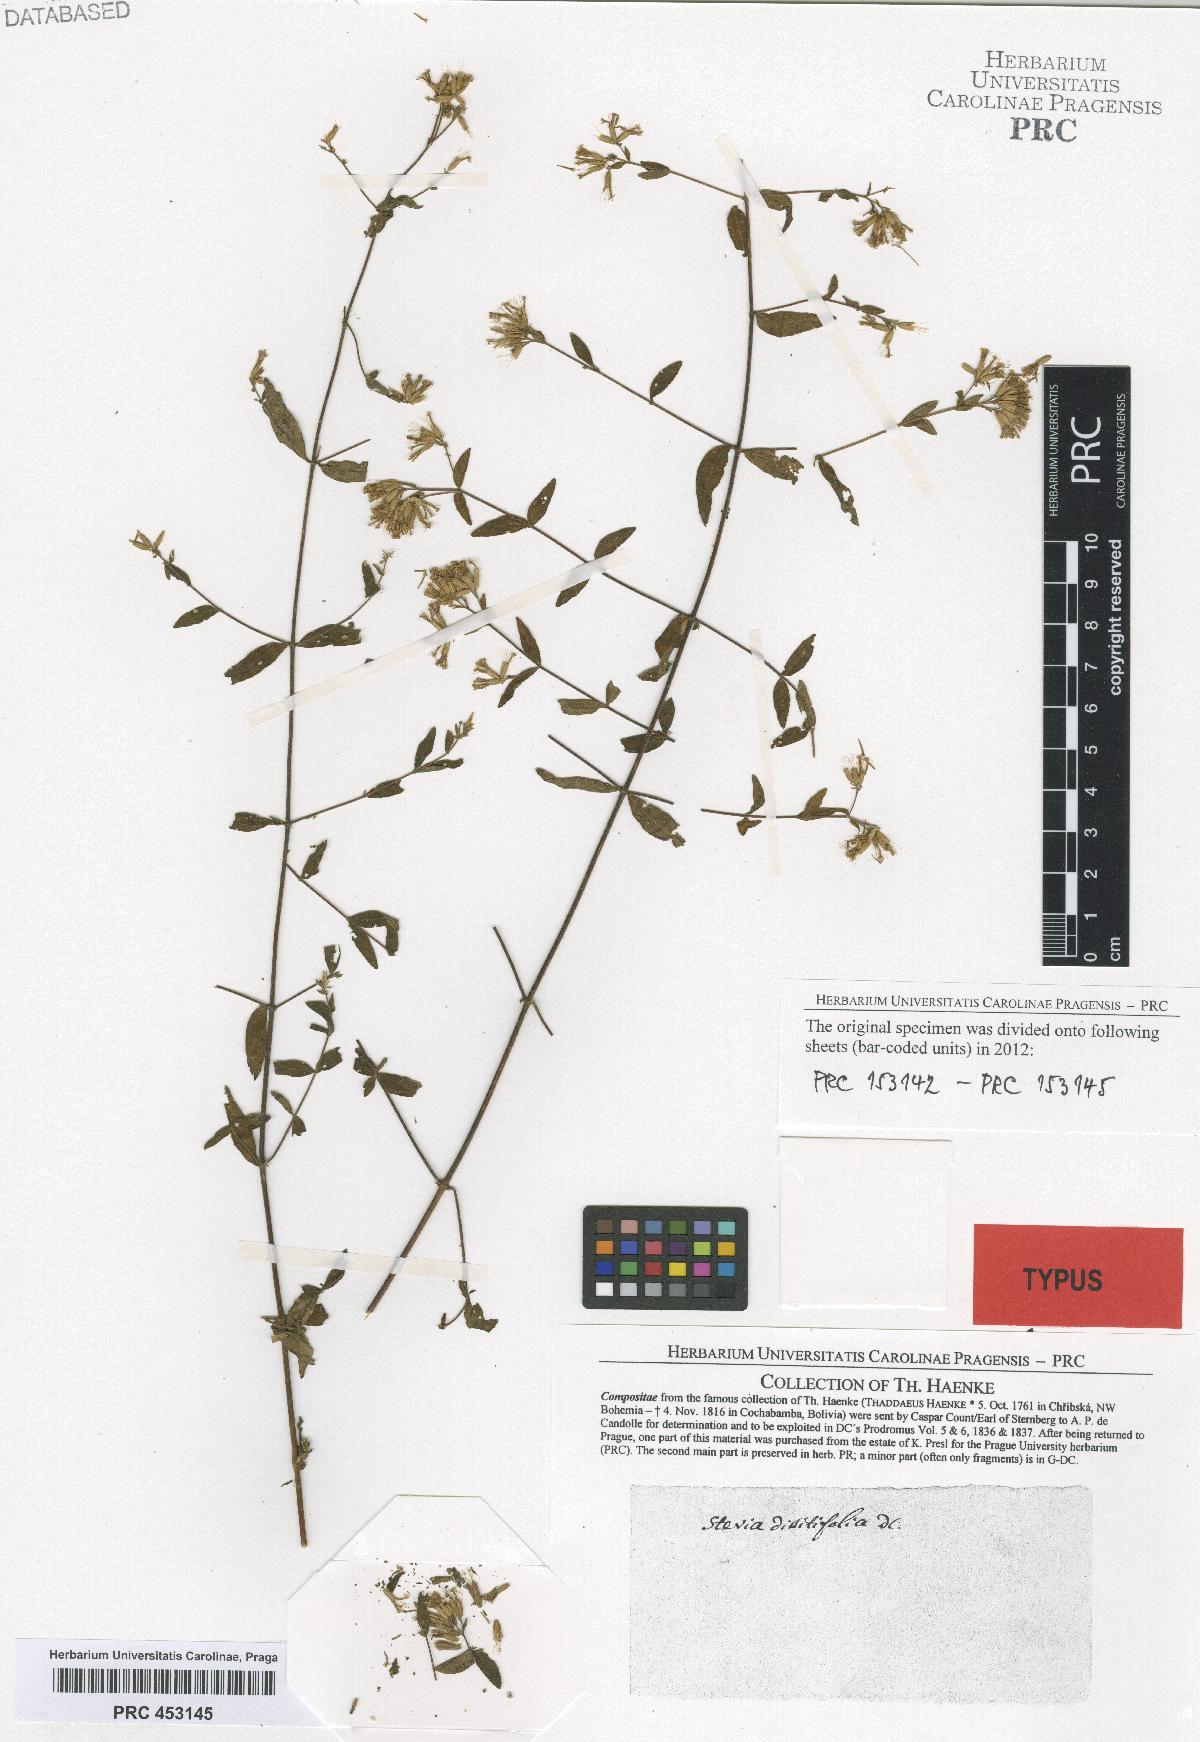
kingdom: Plantae
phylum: Tracheophyta
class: Magnoliopsida
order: Asterales
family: Asteraceae
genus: Stevia
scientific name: Stevia origanoides
